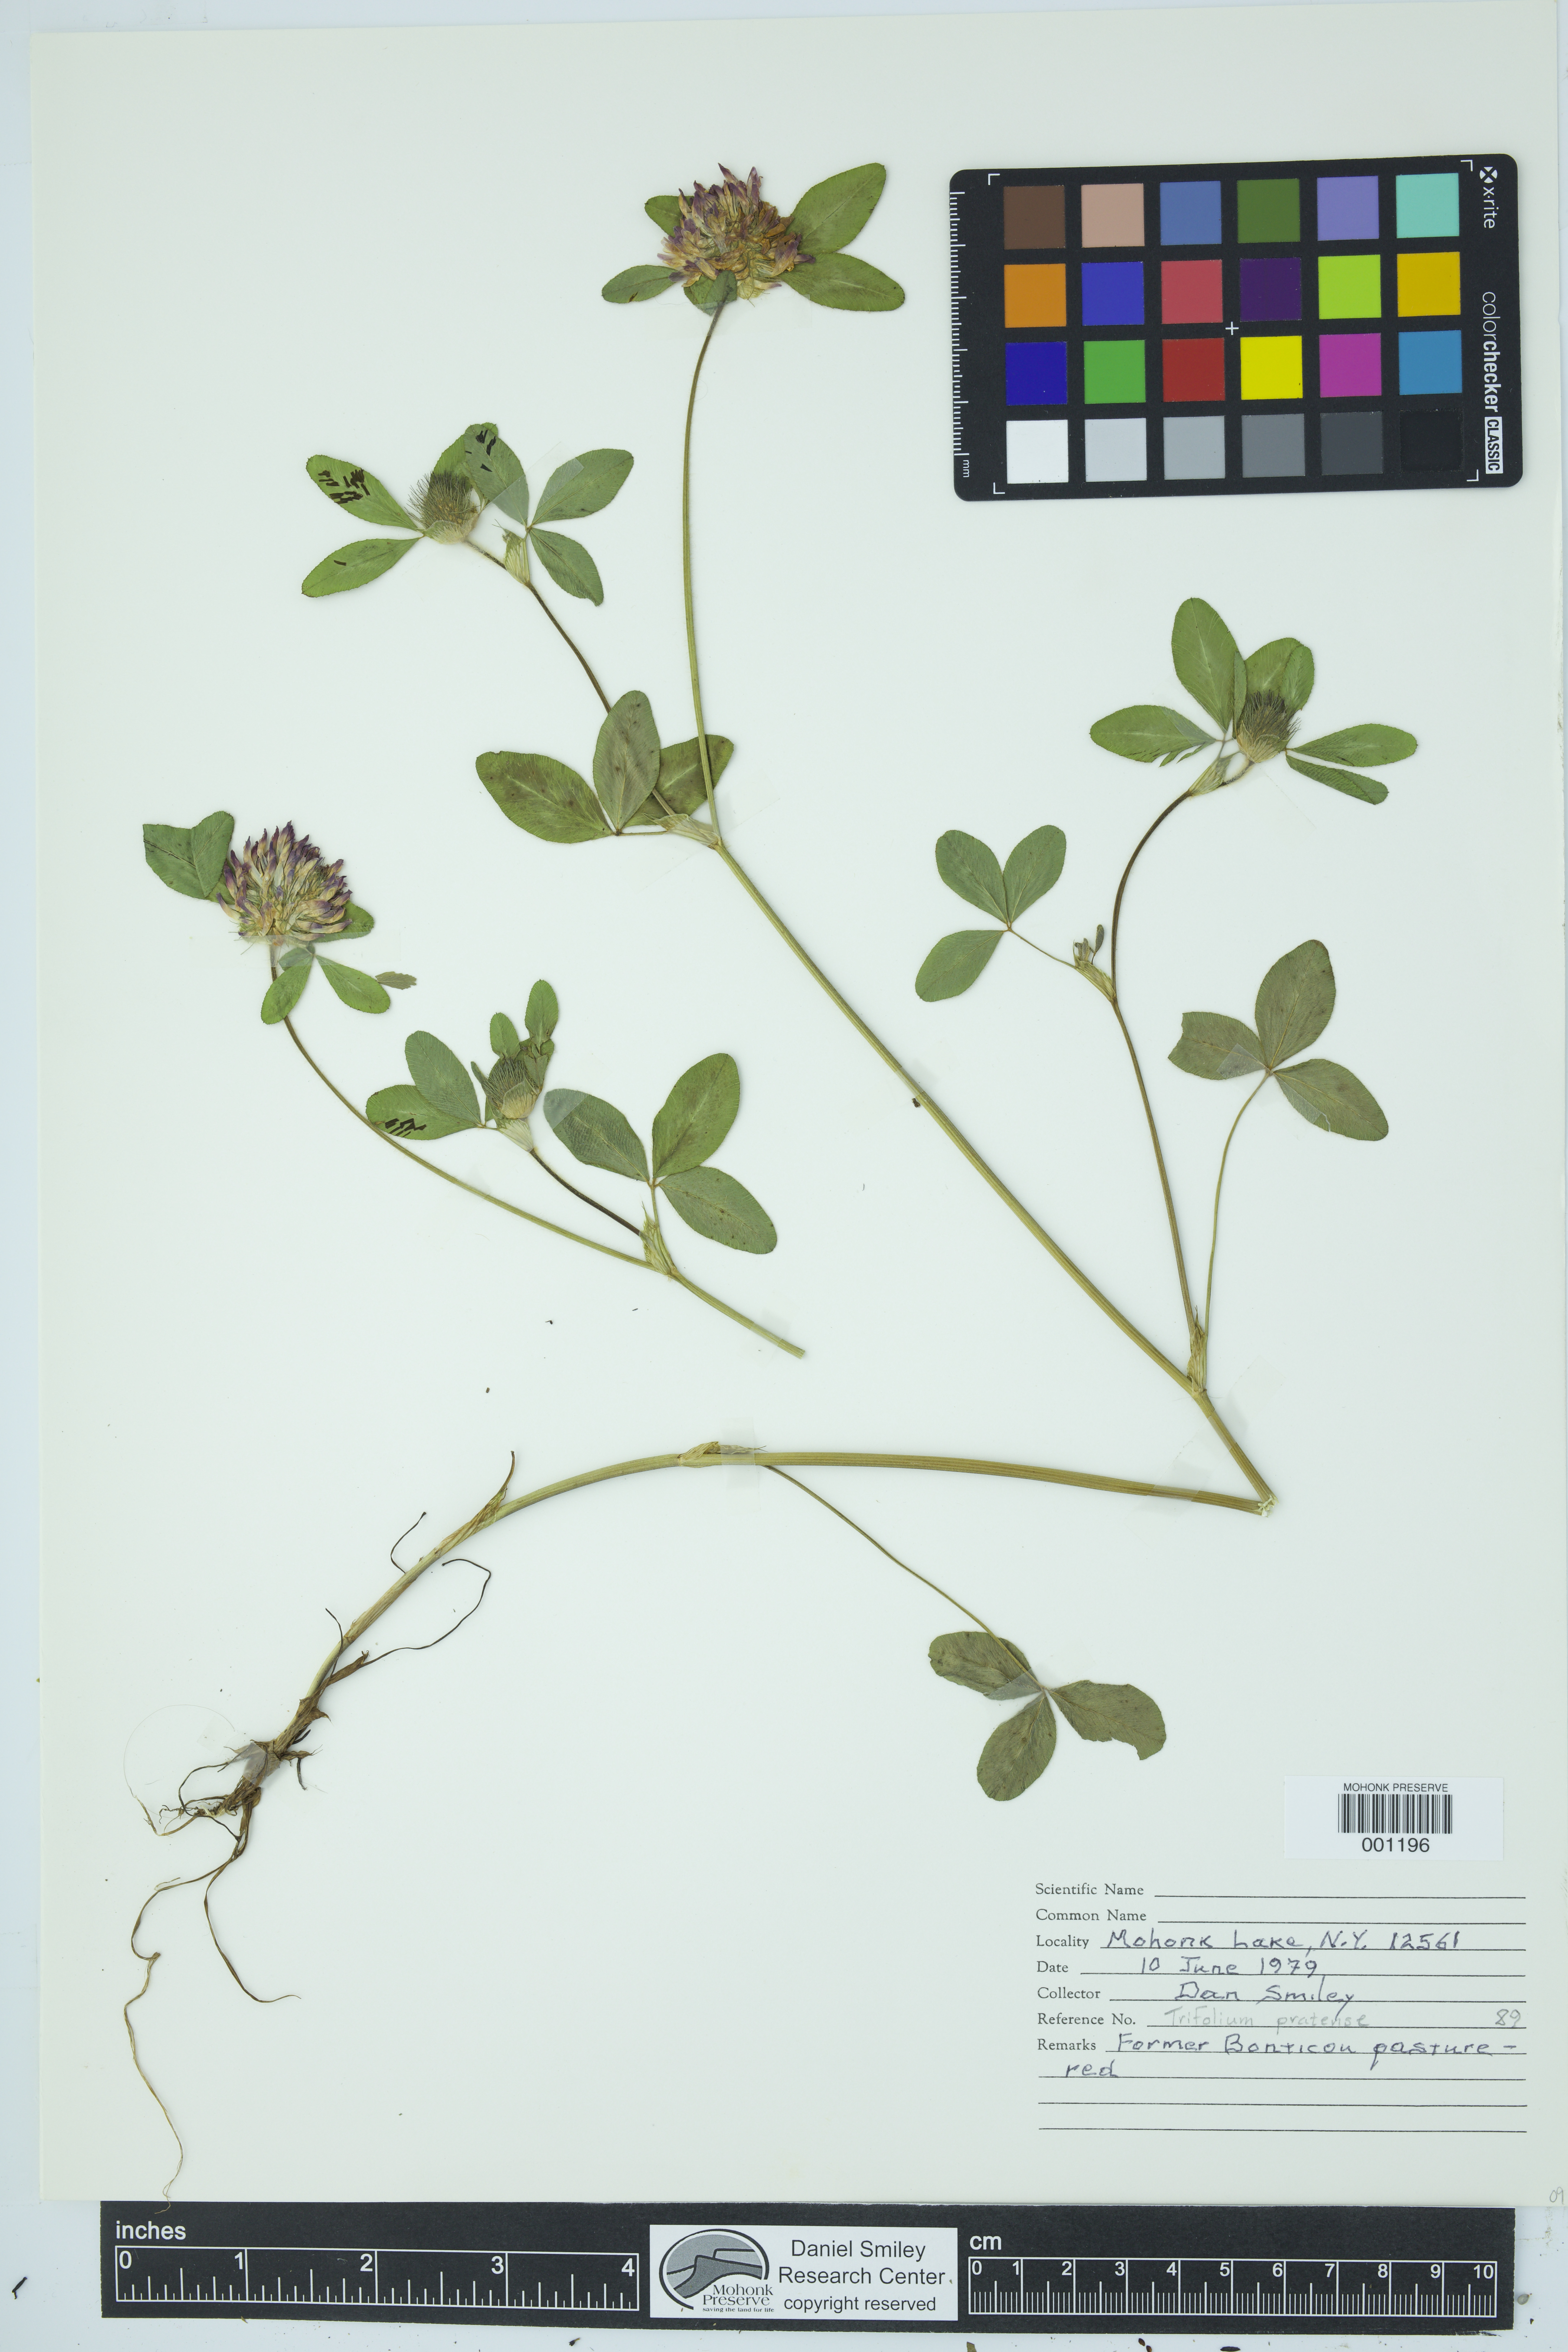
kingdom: Plantae
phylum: Tracheophyta
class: Magnoliopsida
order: Fabales
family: Fabaceae
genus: Trifolium
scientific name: Trifolium pratense
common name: Red clover
